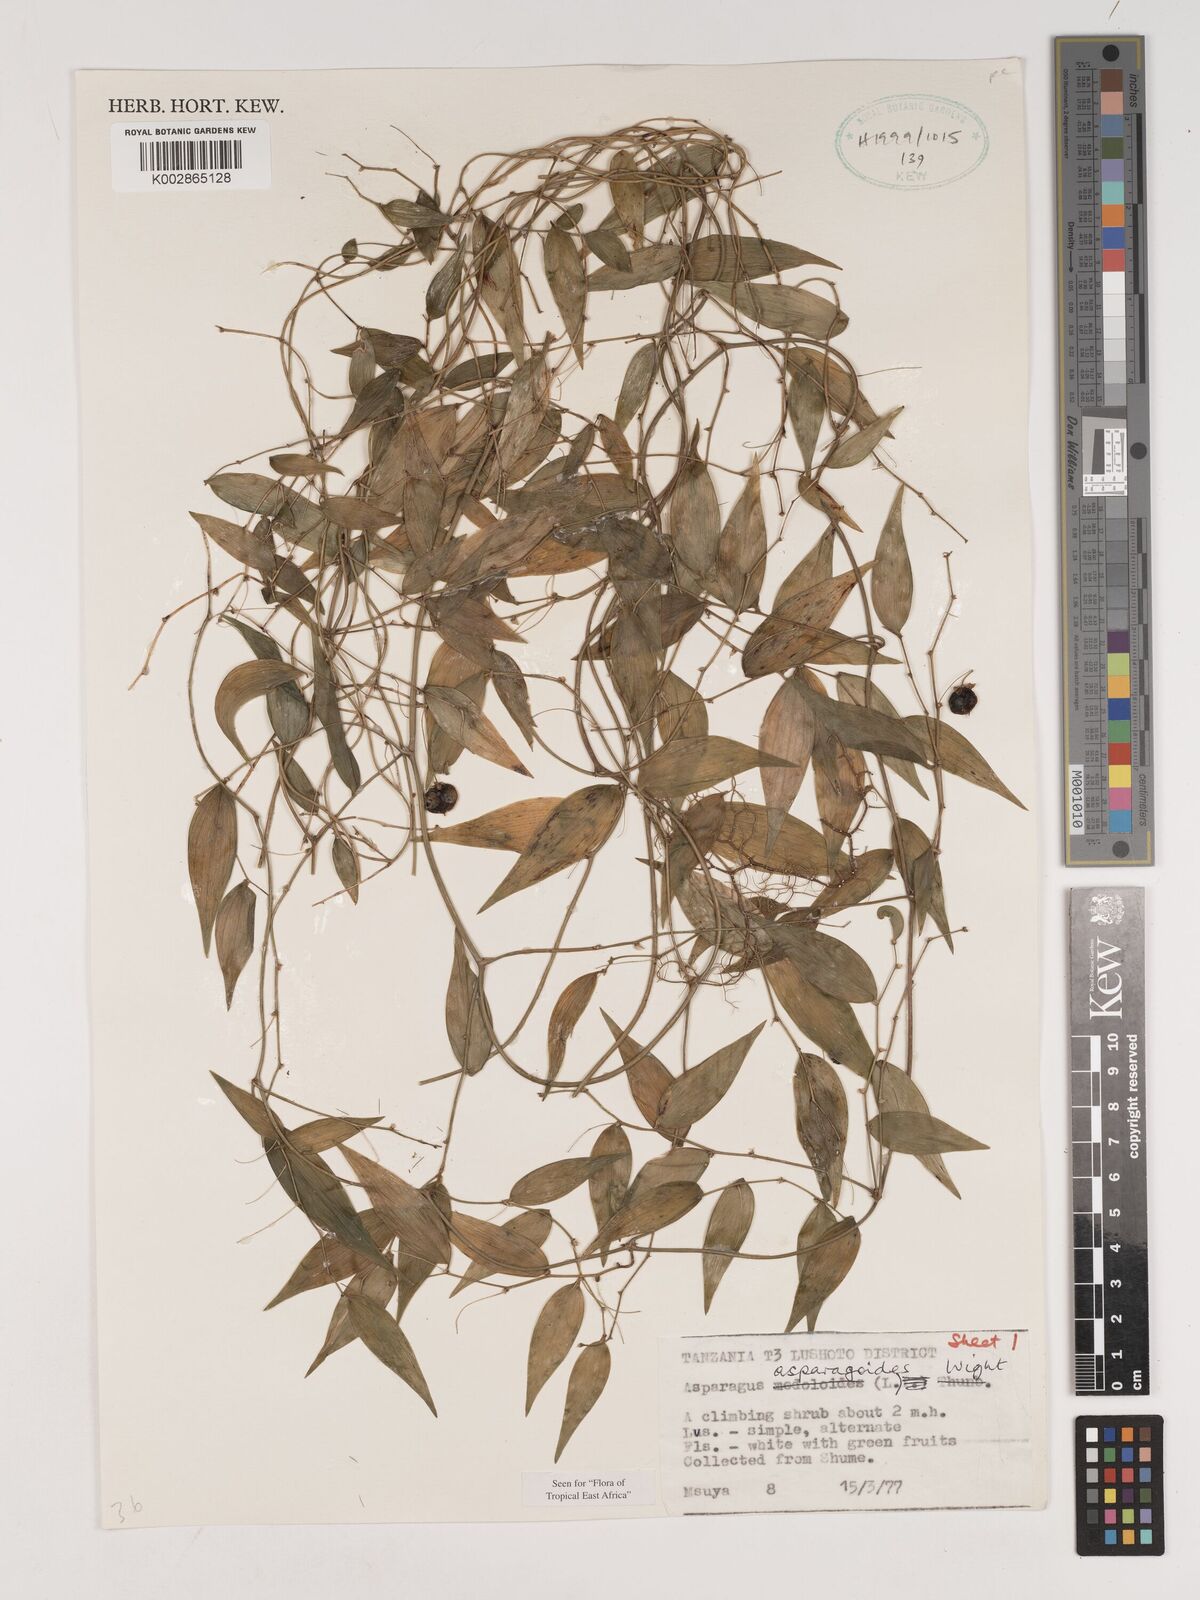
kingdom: Plantae
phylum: Tracheophyta
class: Liliopsida
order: Asparagales
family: Asparagaceae
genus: Asparagus
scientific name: Asparagus asparagoides
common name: African asparagus fern
